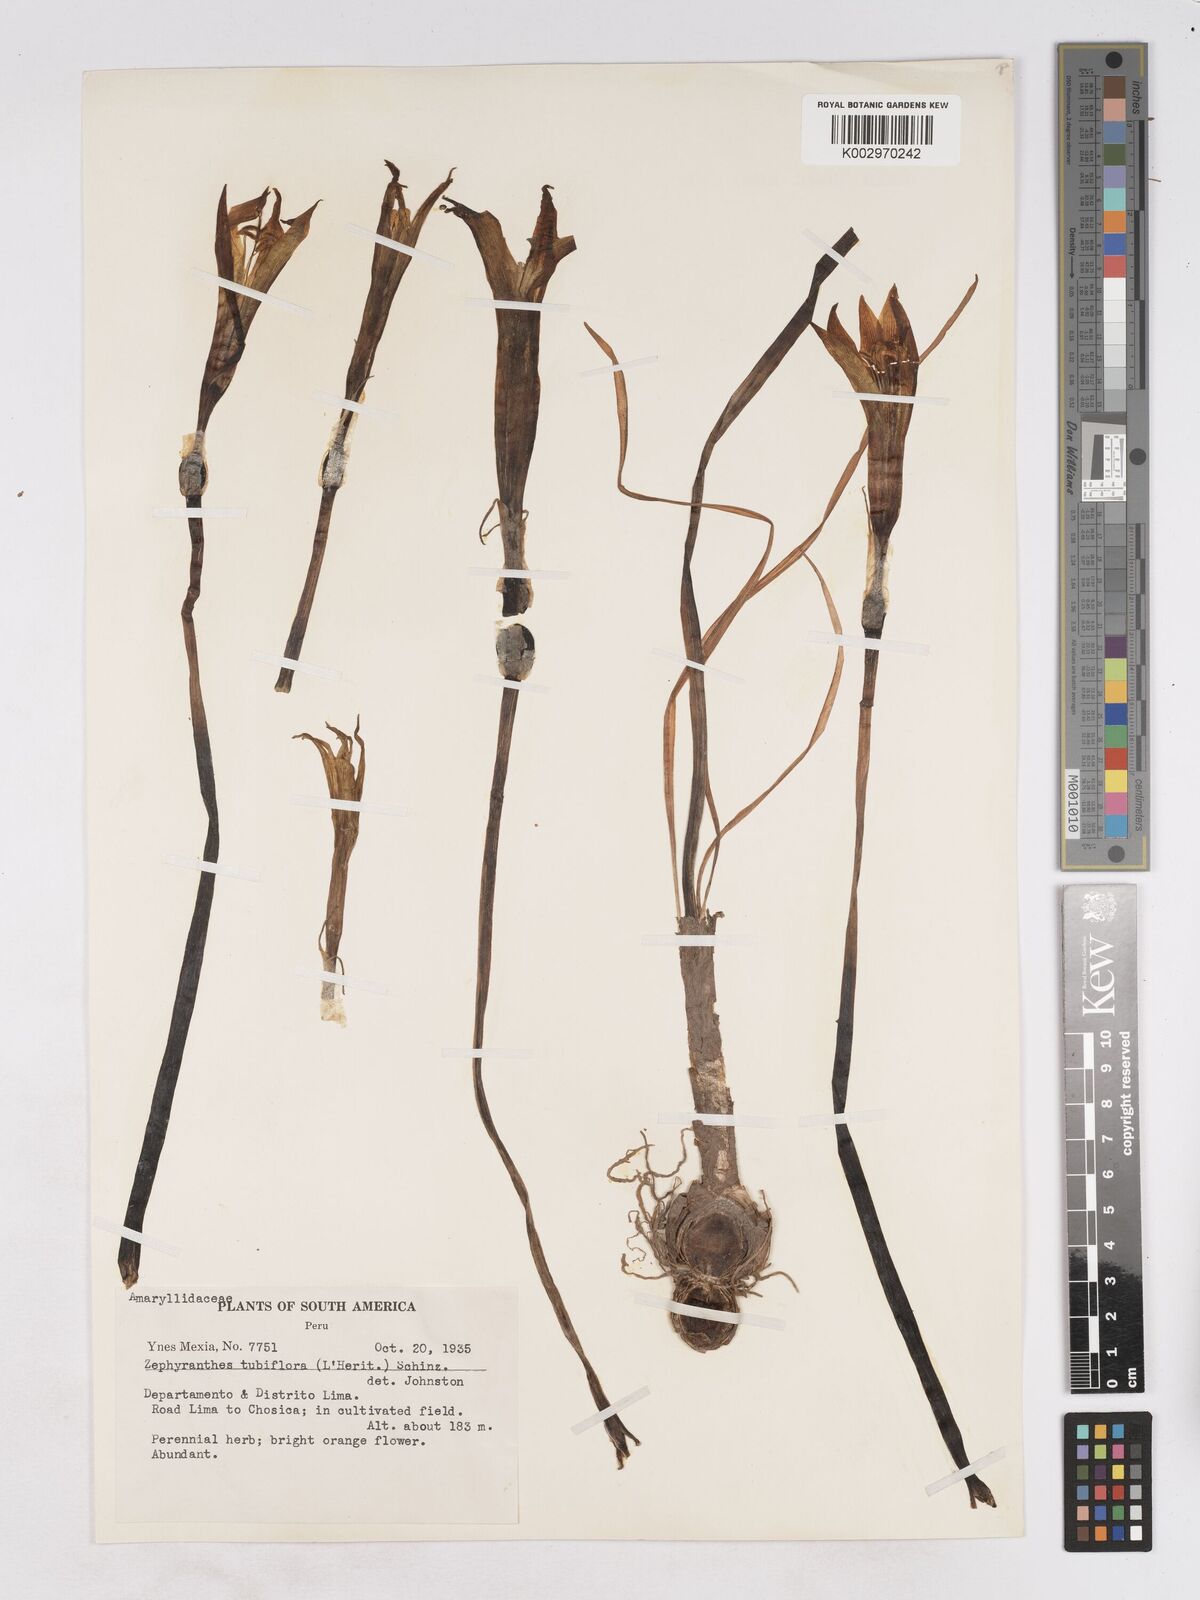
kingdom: Plantae
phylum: Tracheophyta
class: Liliopsida
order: Asparagales
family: Amaryllidaceae
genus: Pyrolirion
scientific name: Pyrolirion arvense
